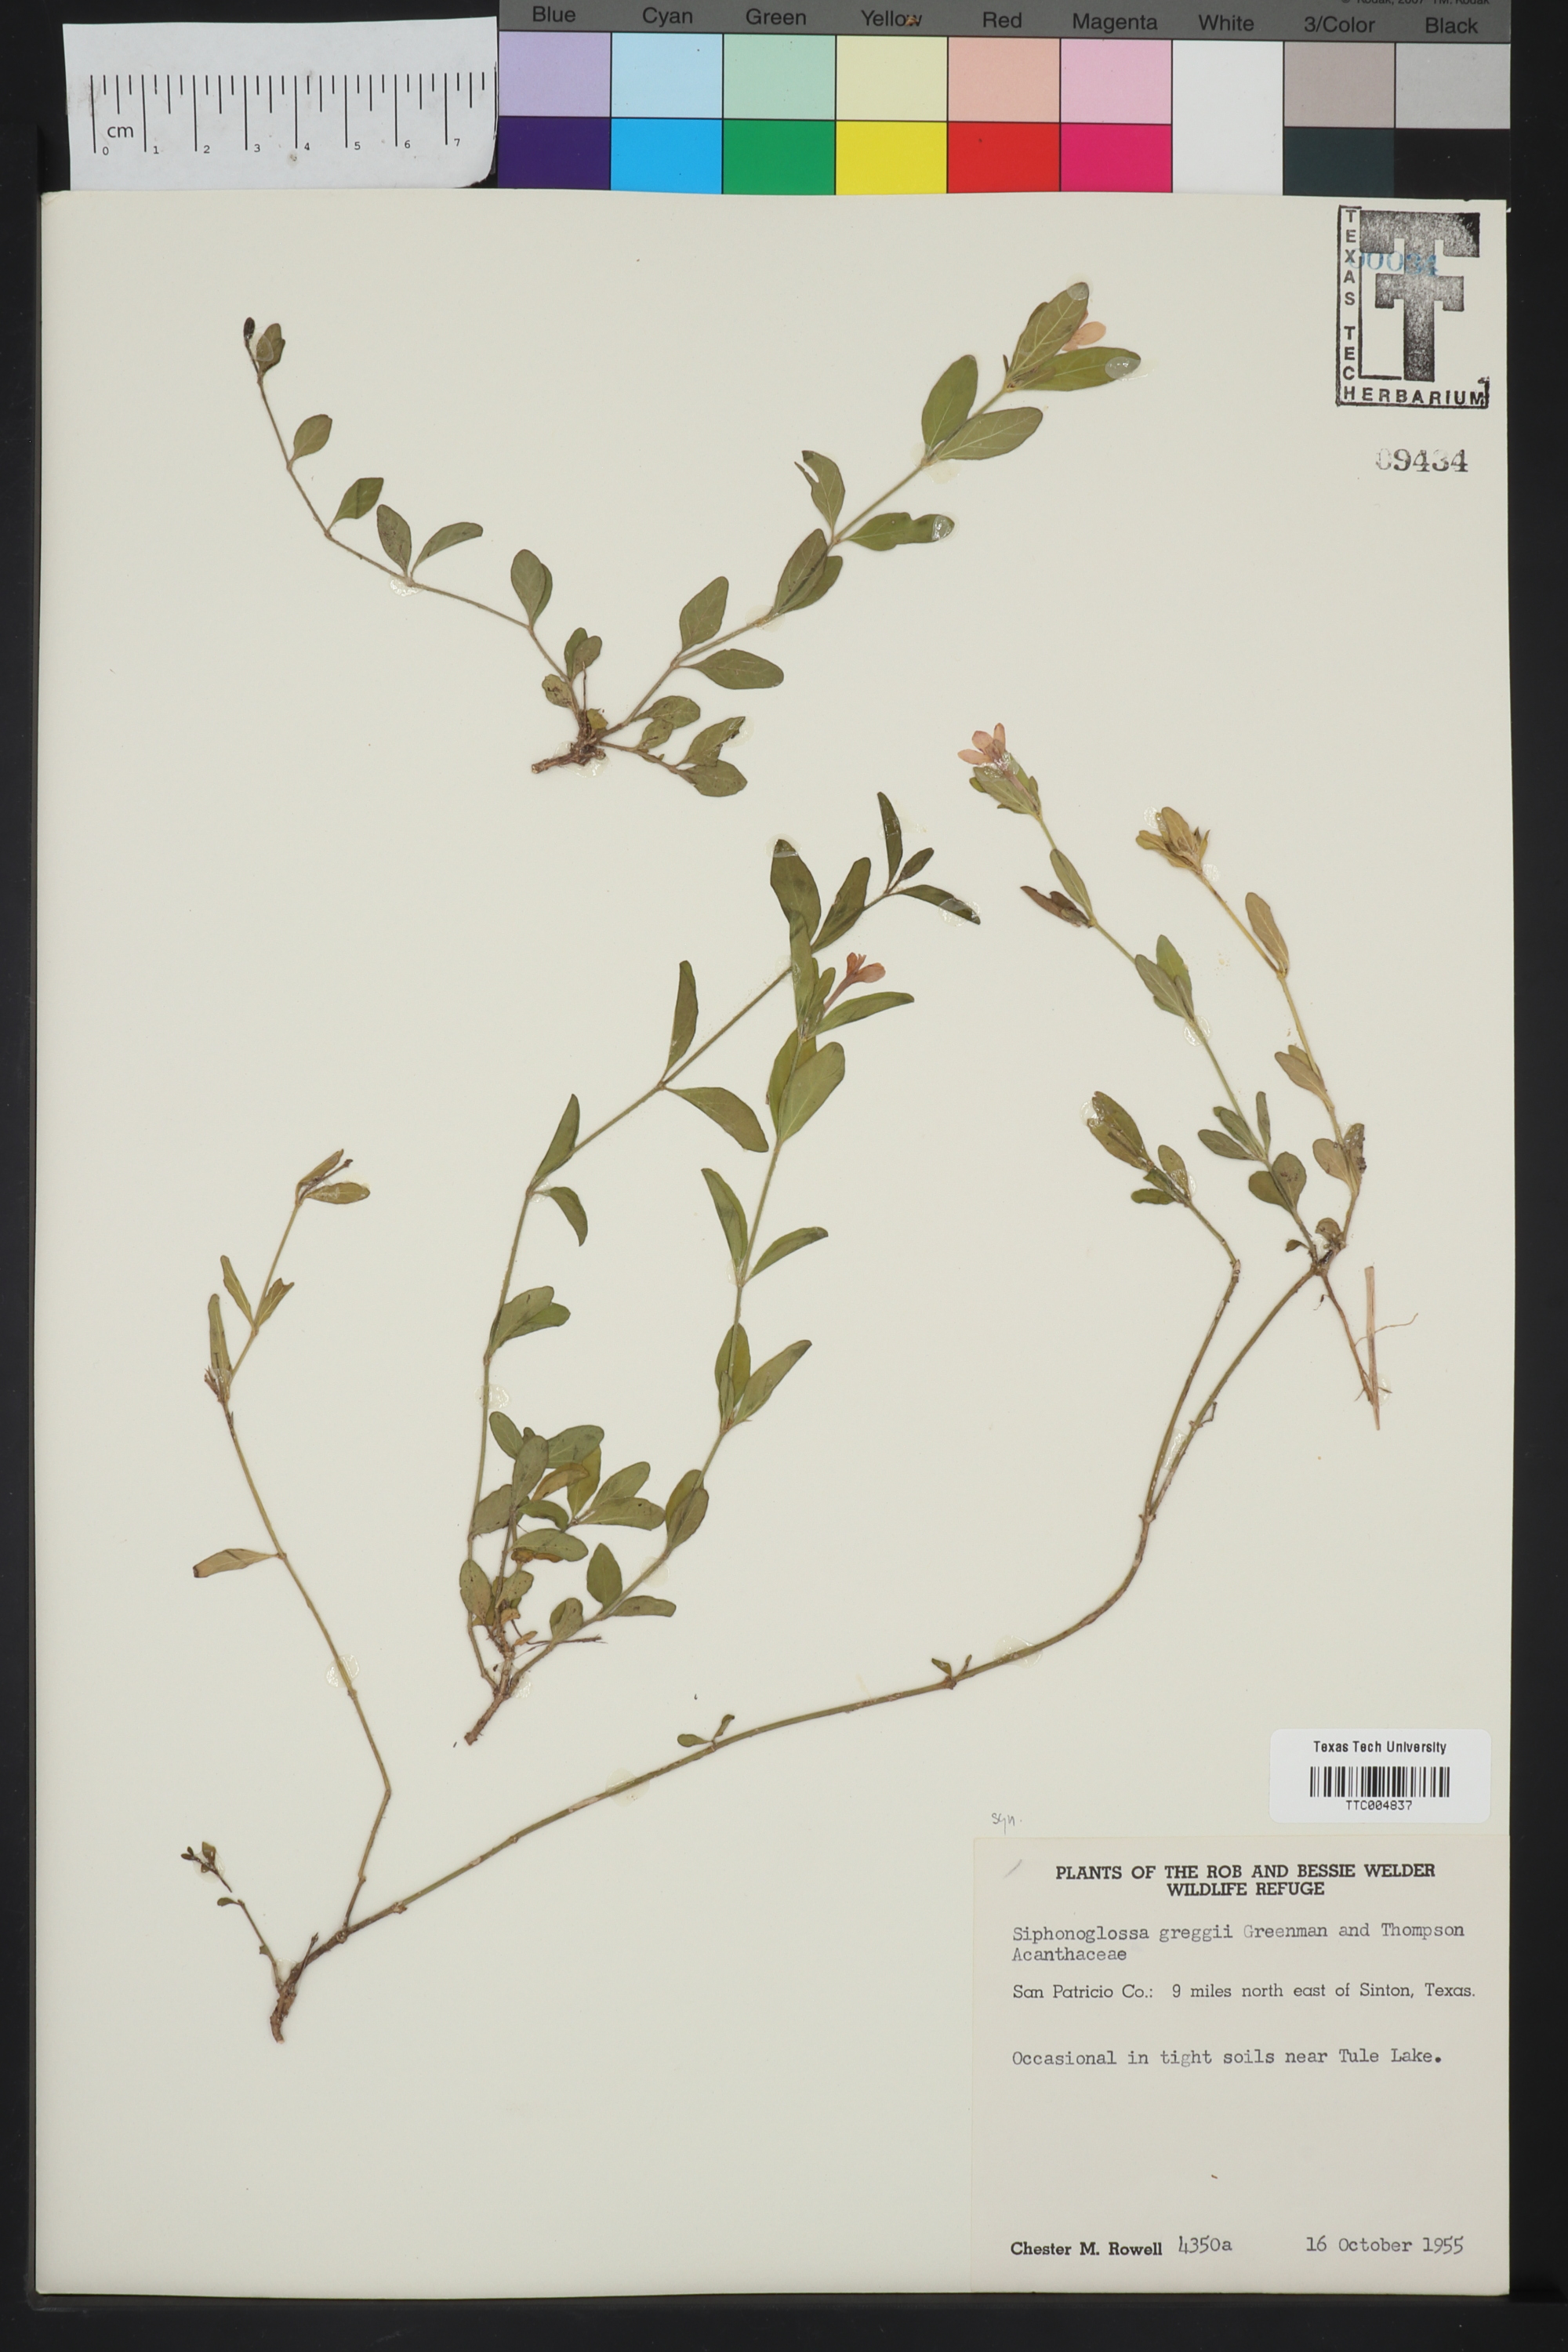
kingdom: Plantae
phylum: Tracheophyta
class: Magnoliopsida
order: Lamiales
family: Acanthaceae
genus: Justicia
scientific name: Justicia pilosella
